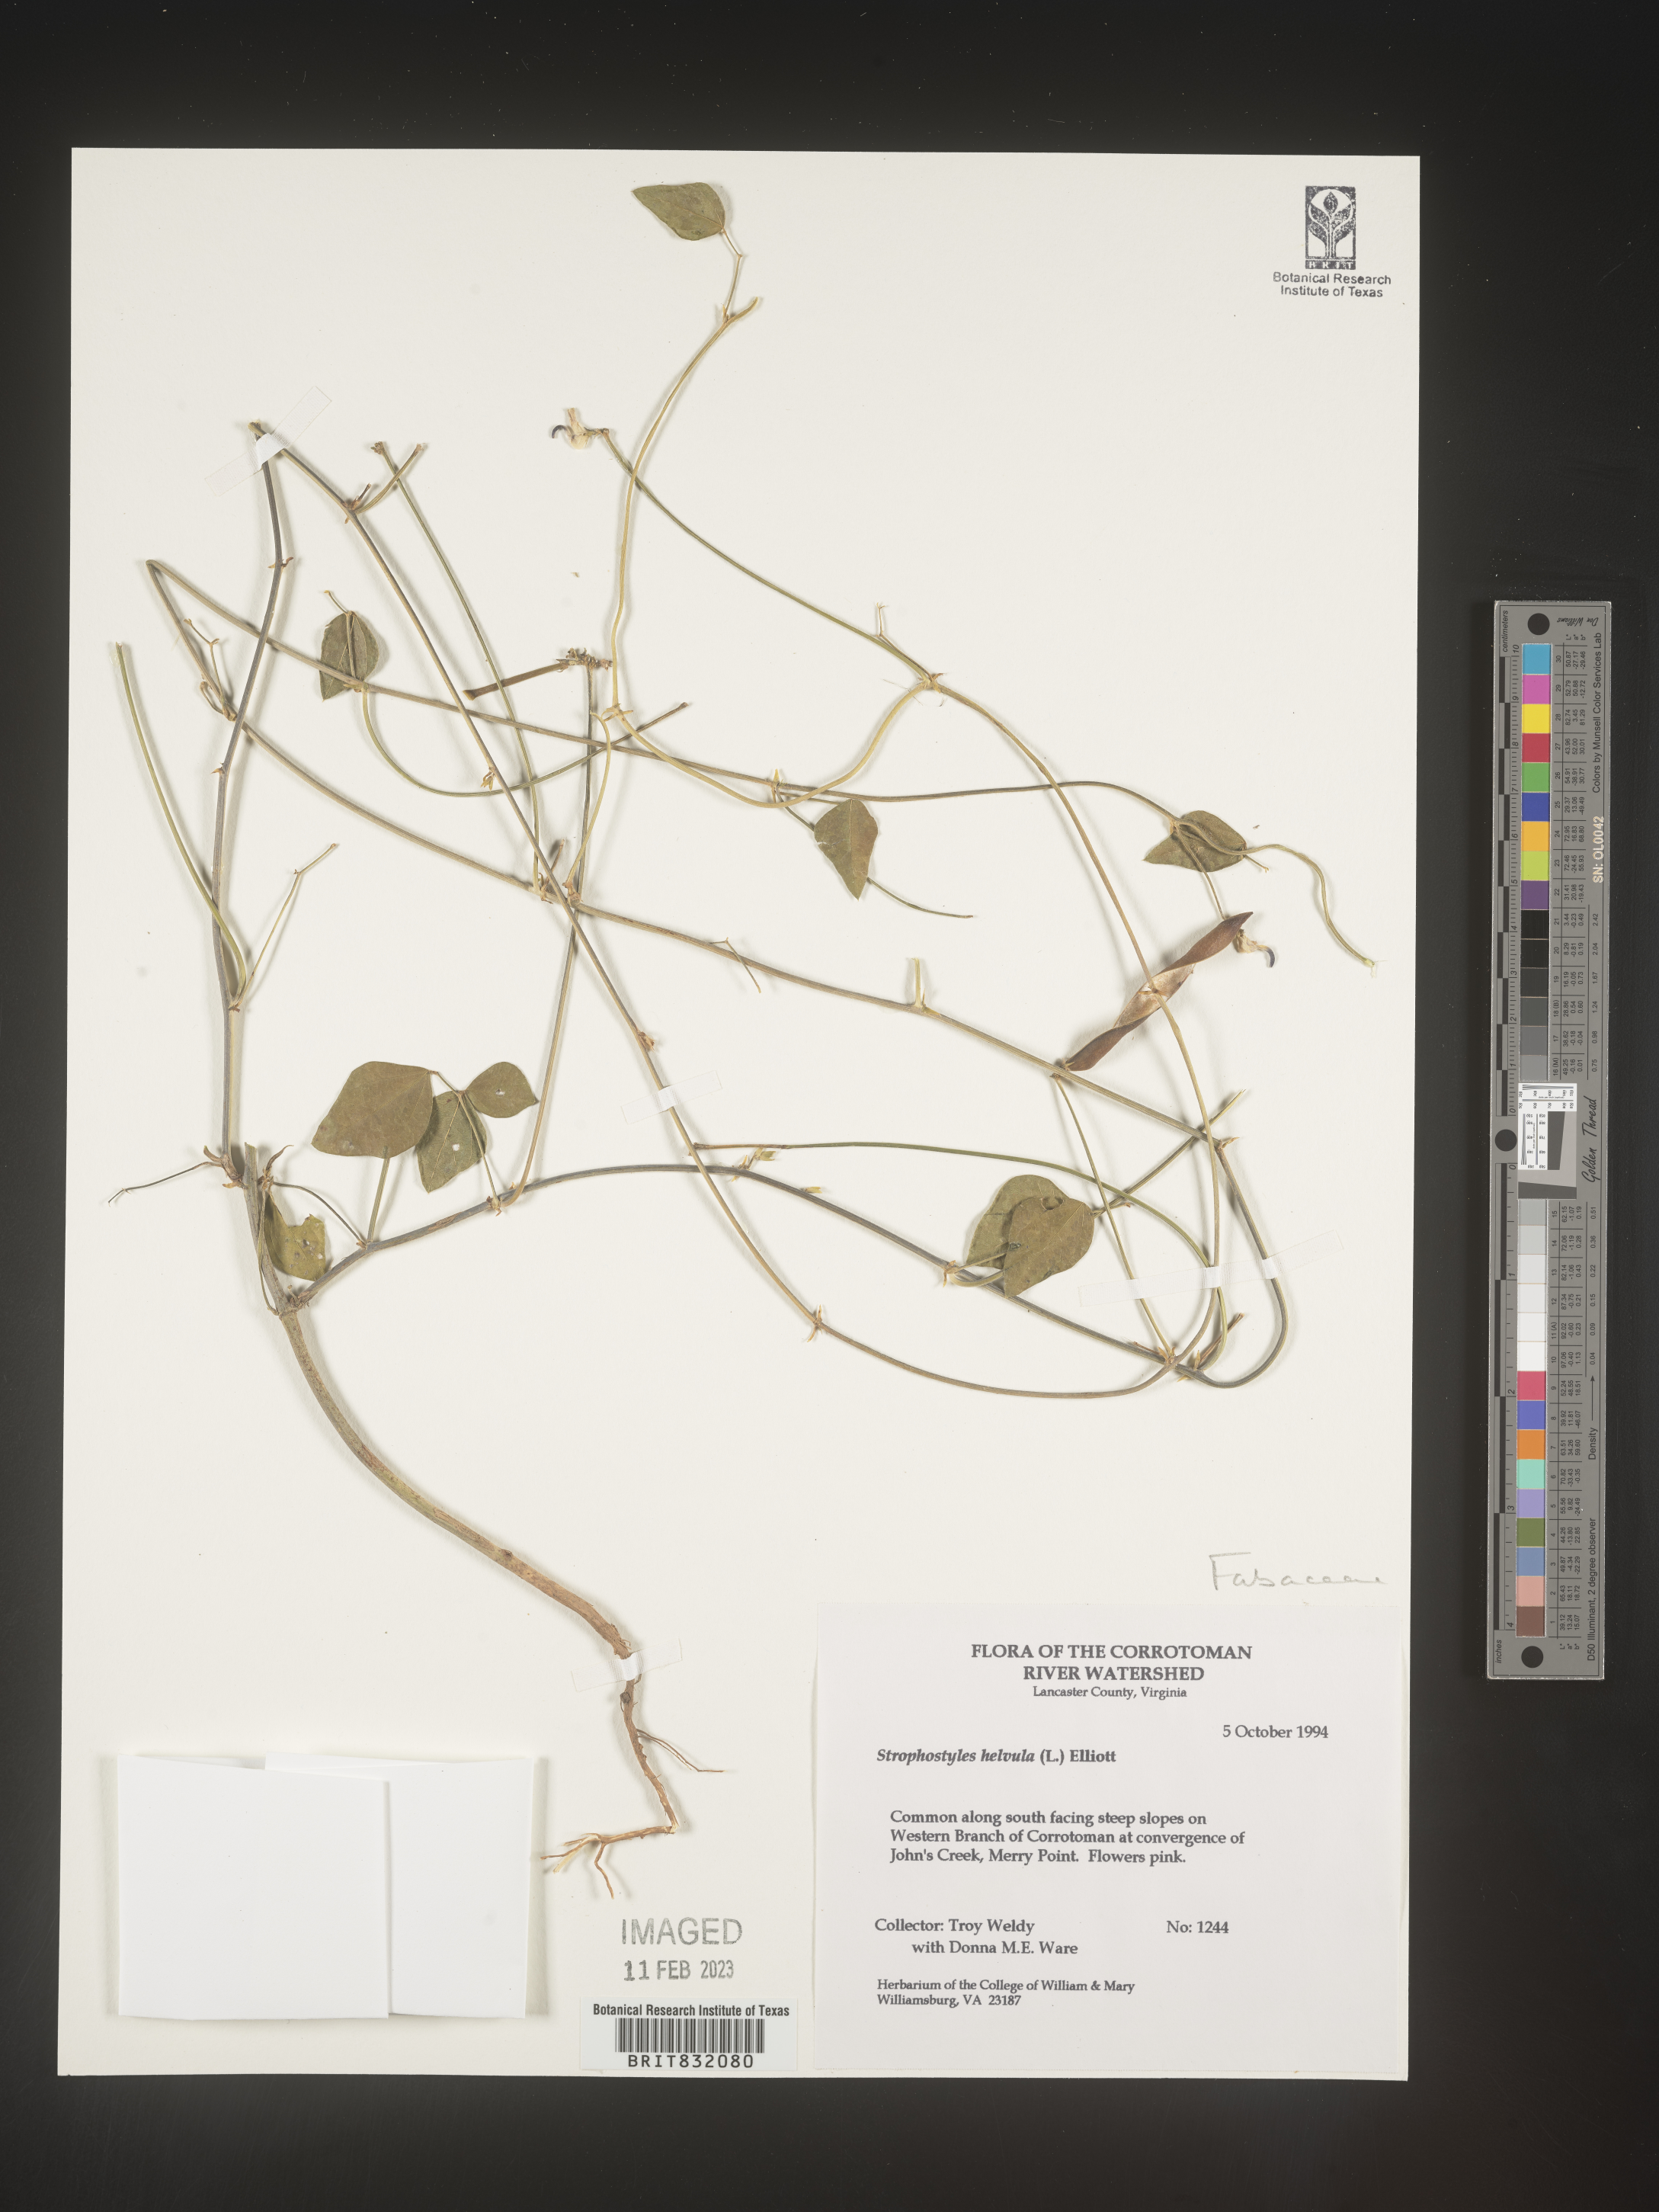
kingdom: Plantae
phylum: Tracheophyta
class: Magnoliopsida
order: Fabales
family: Fabaceae
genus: Strophostyles
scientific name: Strophostyles helvola
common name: Trailing wild bean
